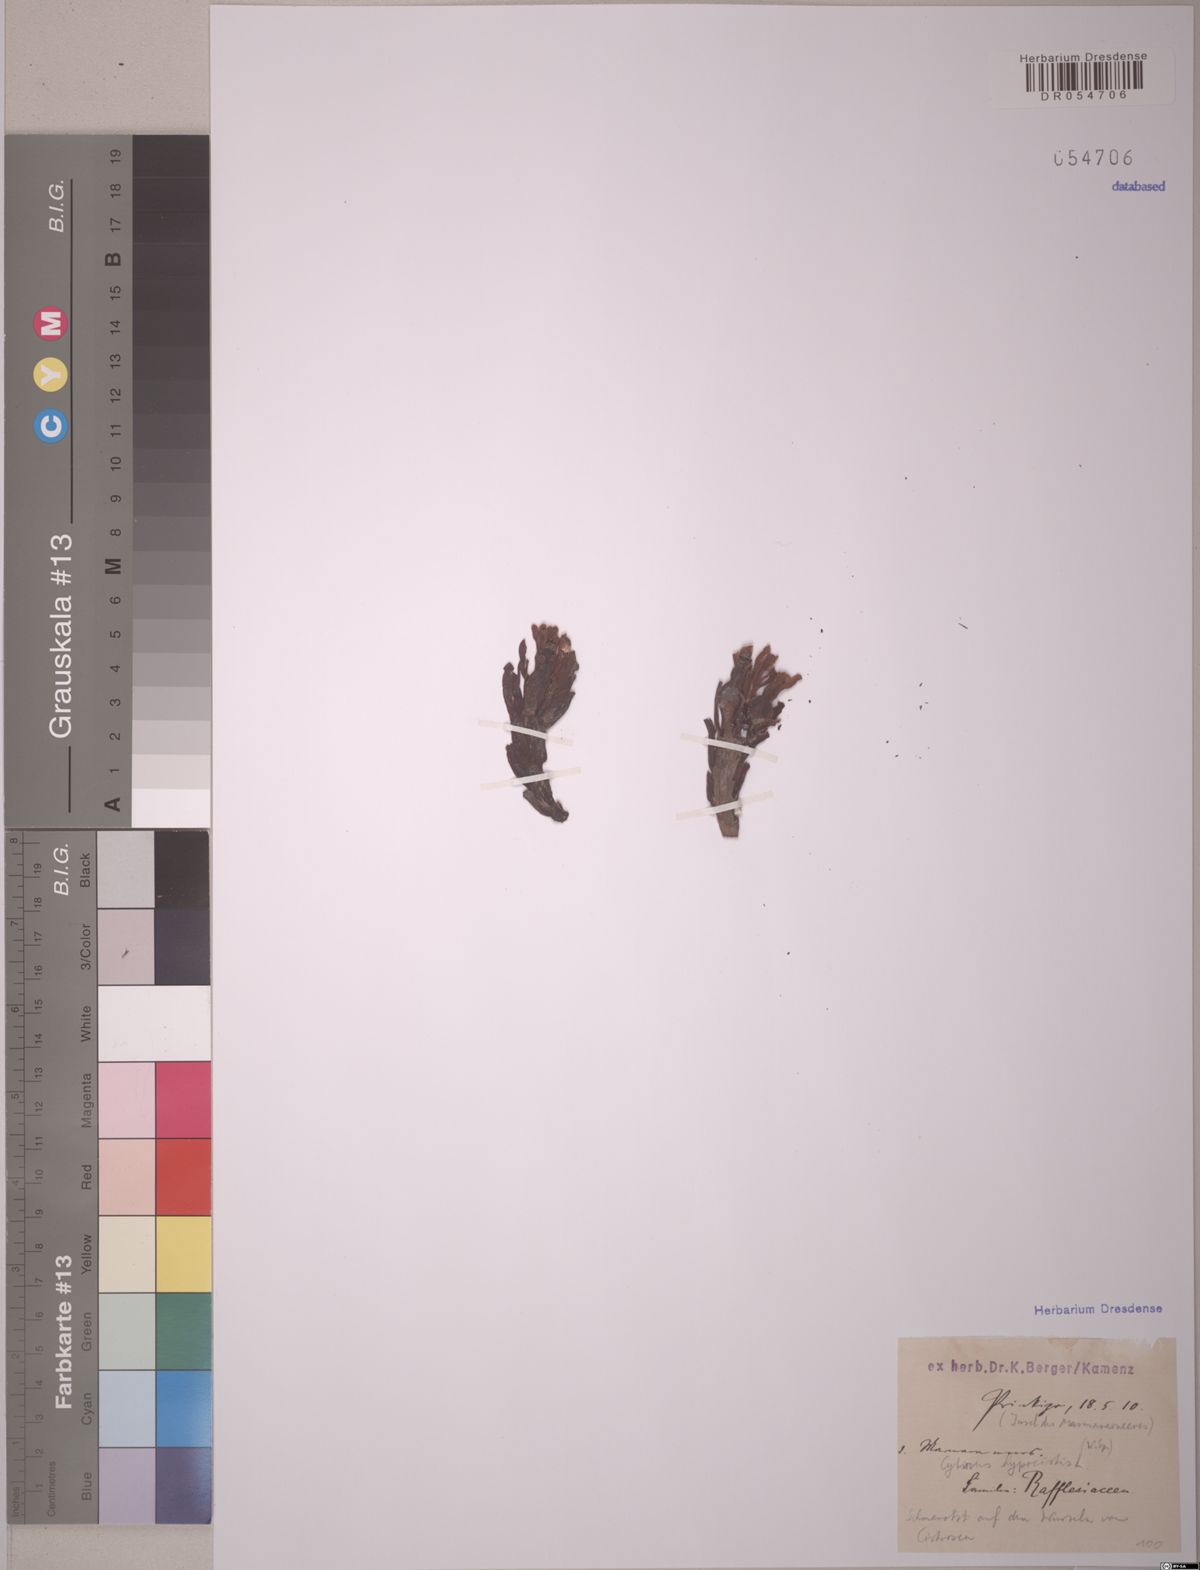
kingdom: Plantae
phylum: Tracheophyta
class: Magnoliopsida
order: Malvales
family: Cytinaceae
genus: Cytinus
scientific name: Cytinus hypocistis
